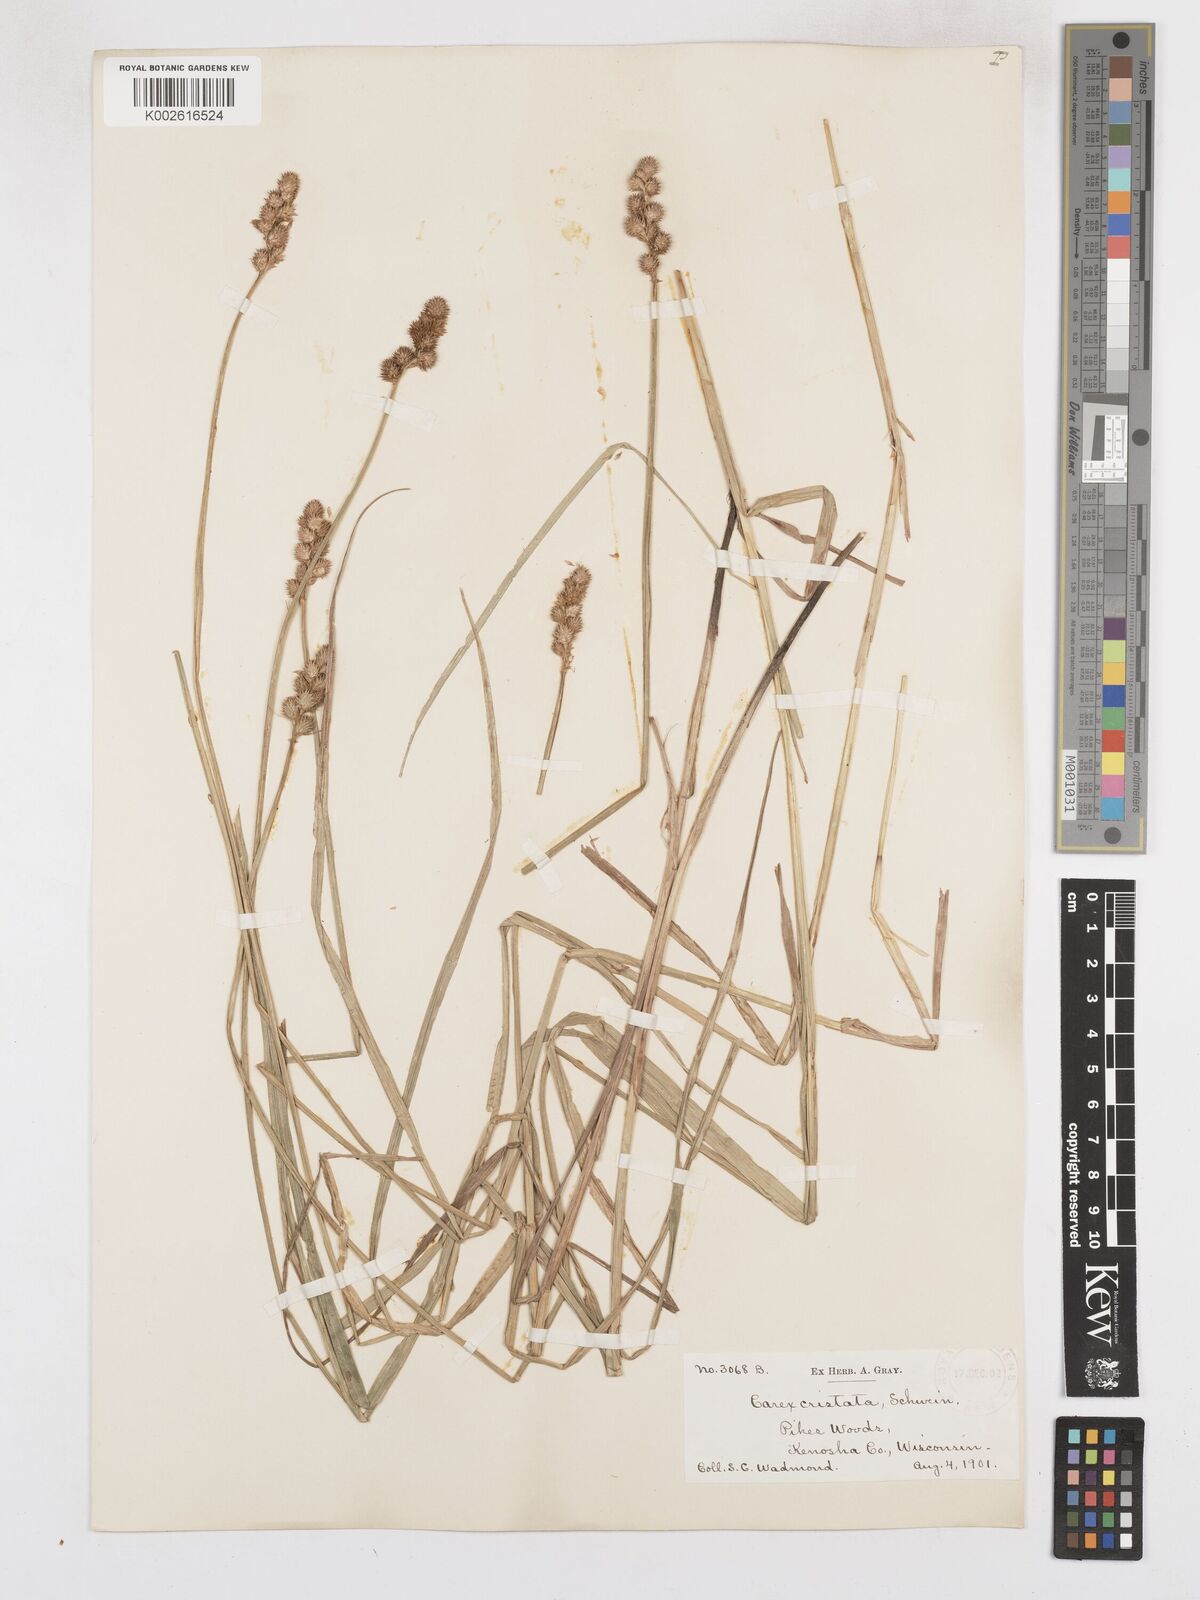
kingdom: Plantae
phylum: Tracheophyta
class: Liliopsida
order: Poales
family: Cyperaceae
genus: Carex
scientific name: Carex cristatella
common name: Crested oval sedge
